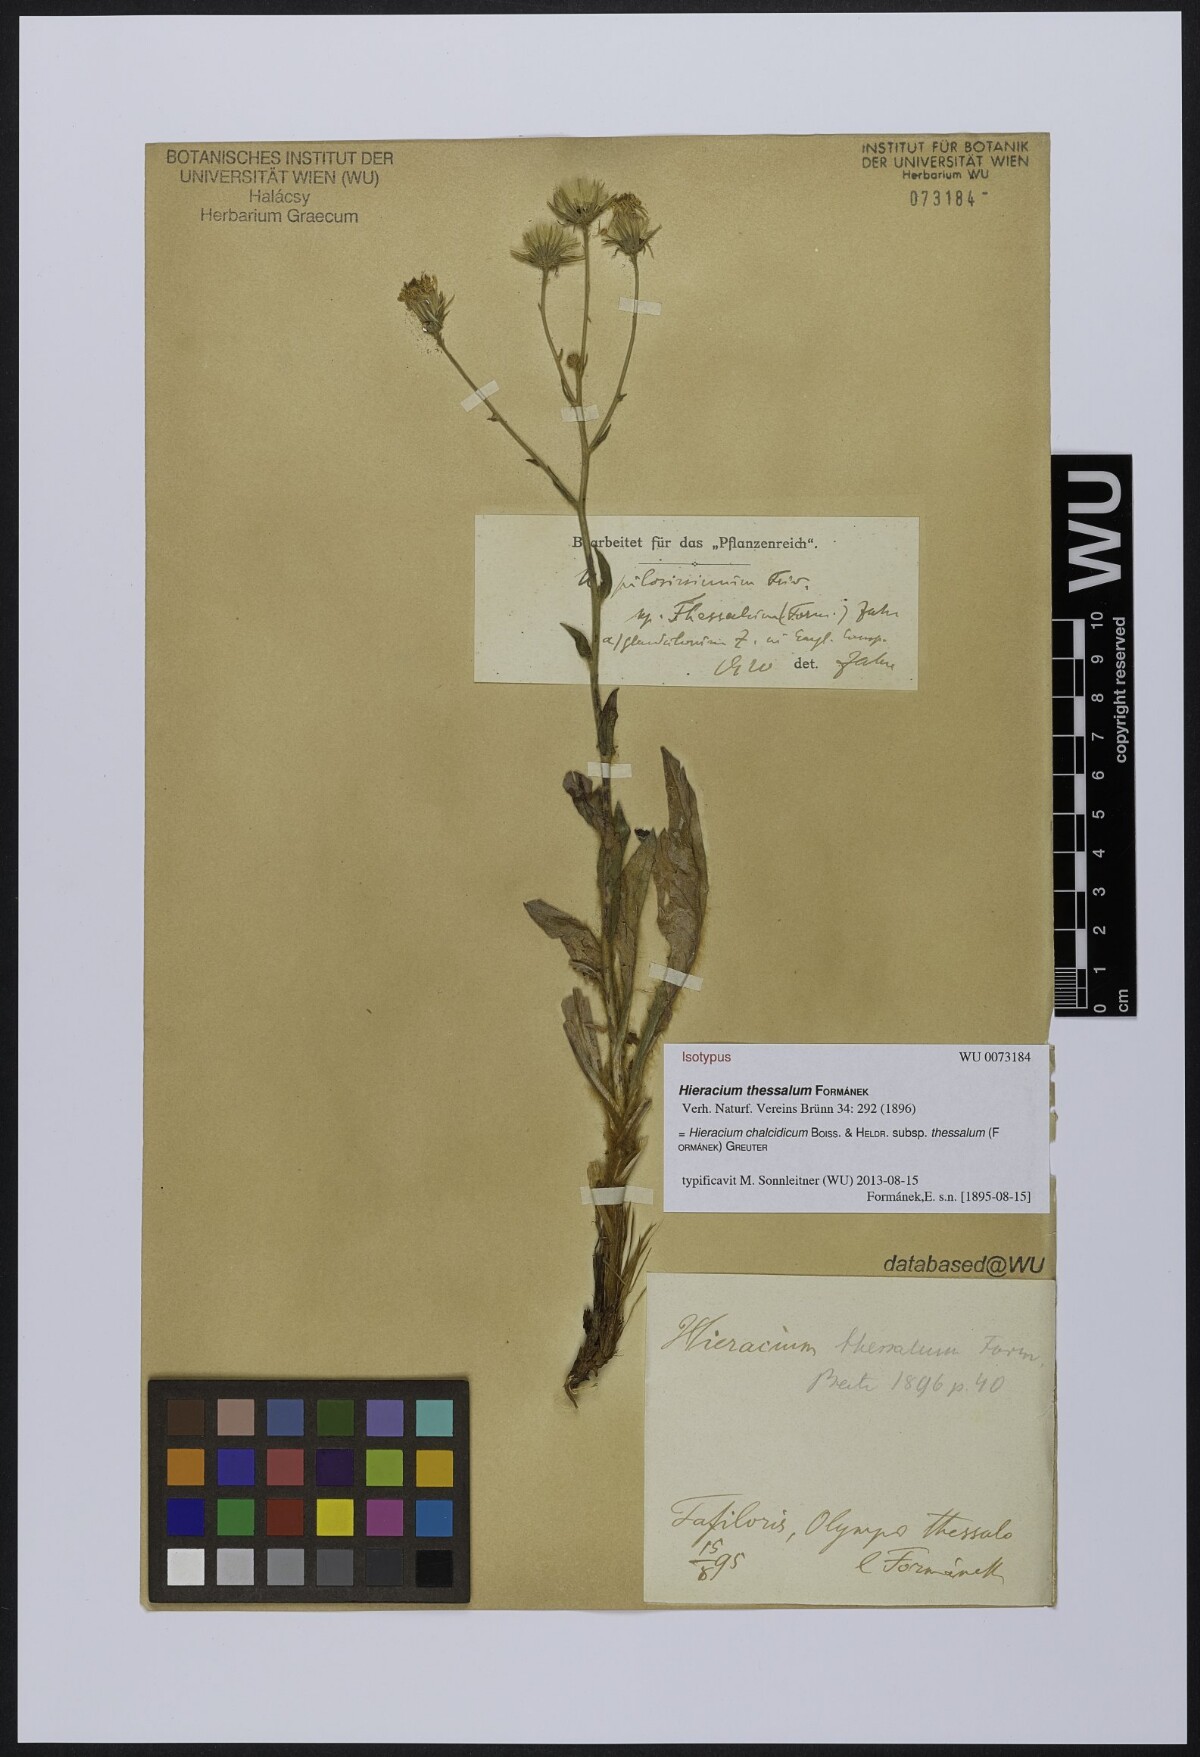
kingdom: Plantae
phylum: Tracheophyta
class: Magnoliopsida
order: Asterales
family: Asteraceae
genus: Hieracium
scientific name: Hieracium chalcidicum
